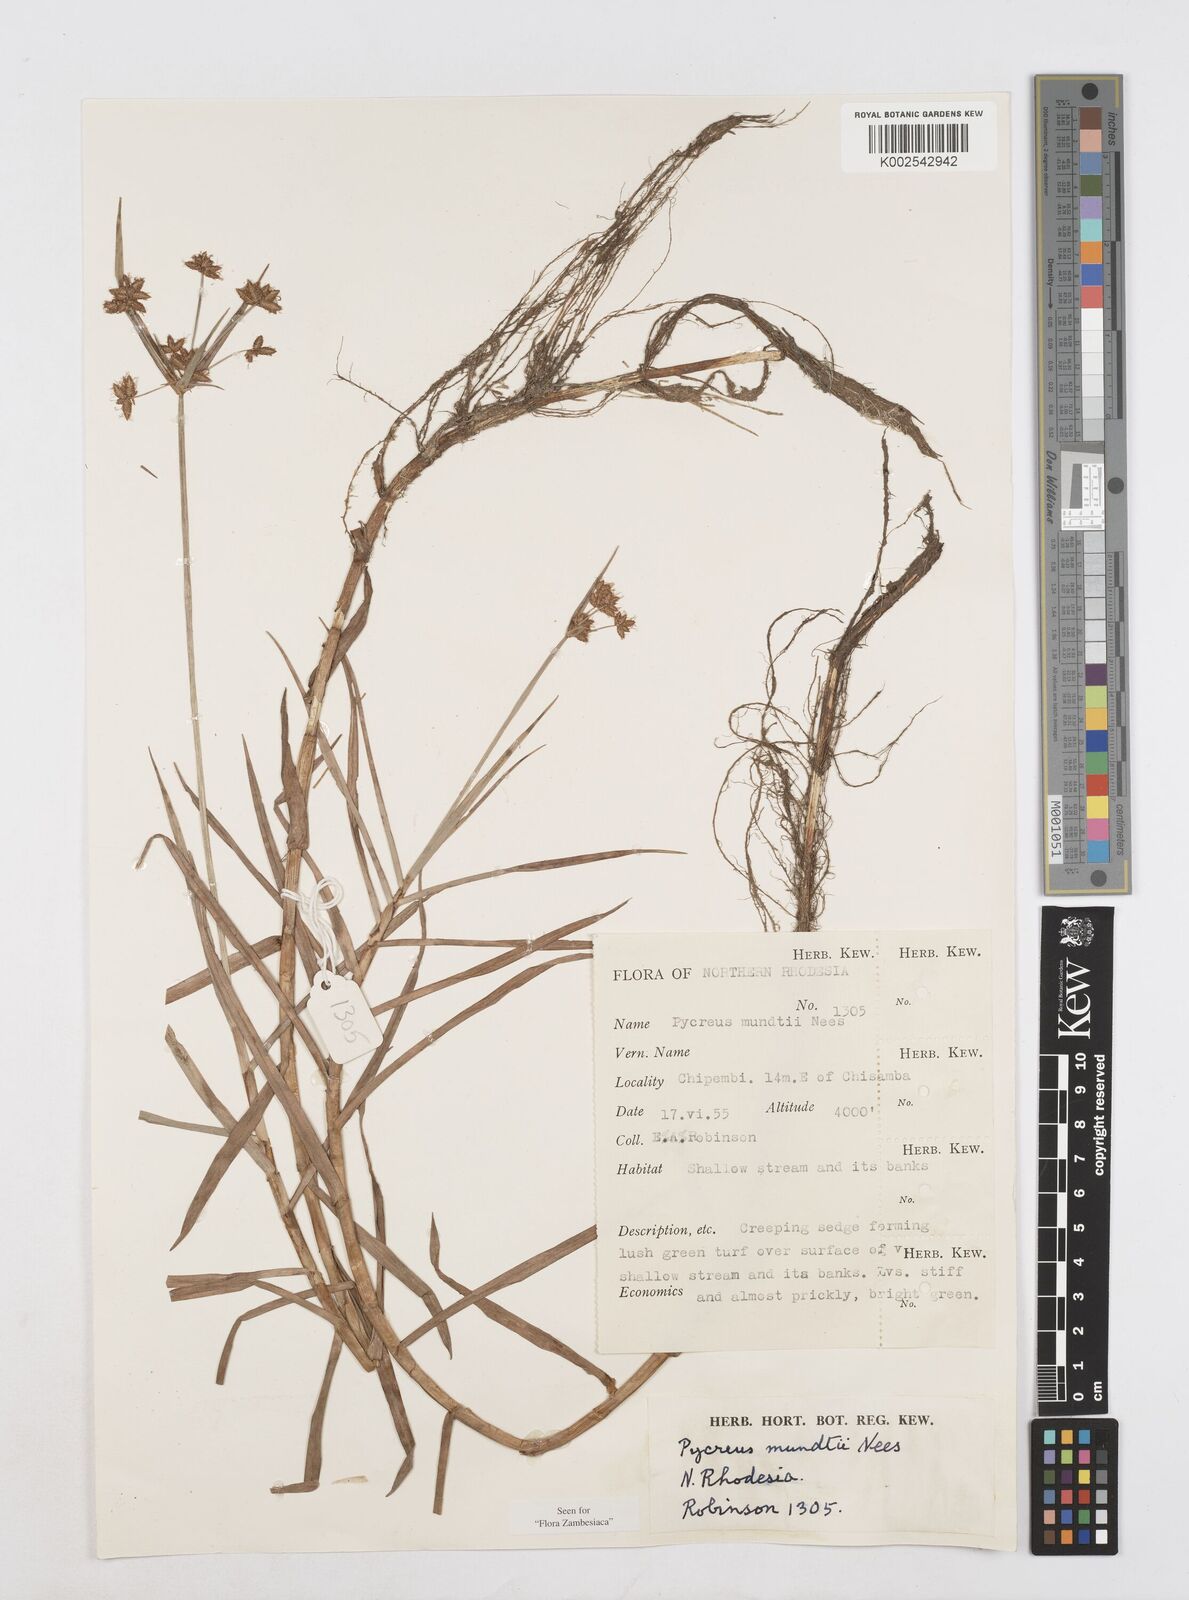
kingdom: Plantae
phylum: Tracheophyta
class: Liliopsida
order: Poales
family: Cyperaceae
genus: Cyperus
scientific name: Cyperus mundii
